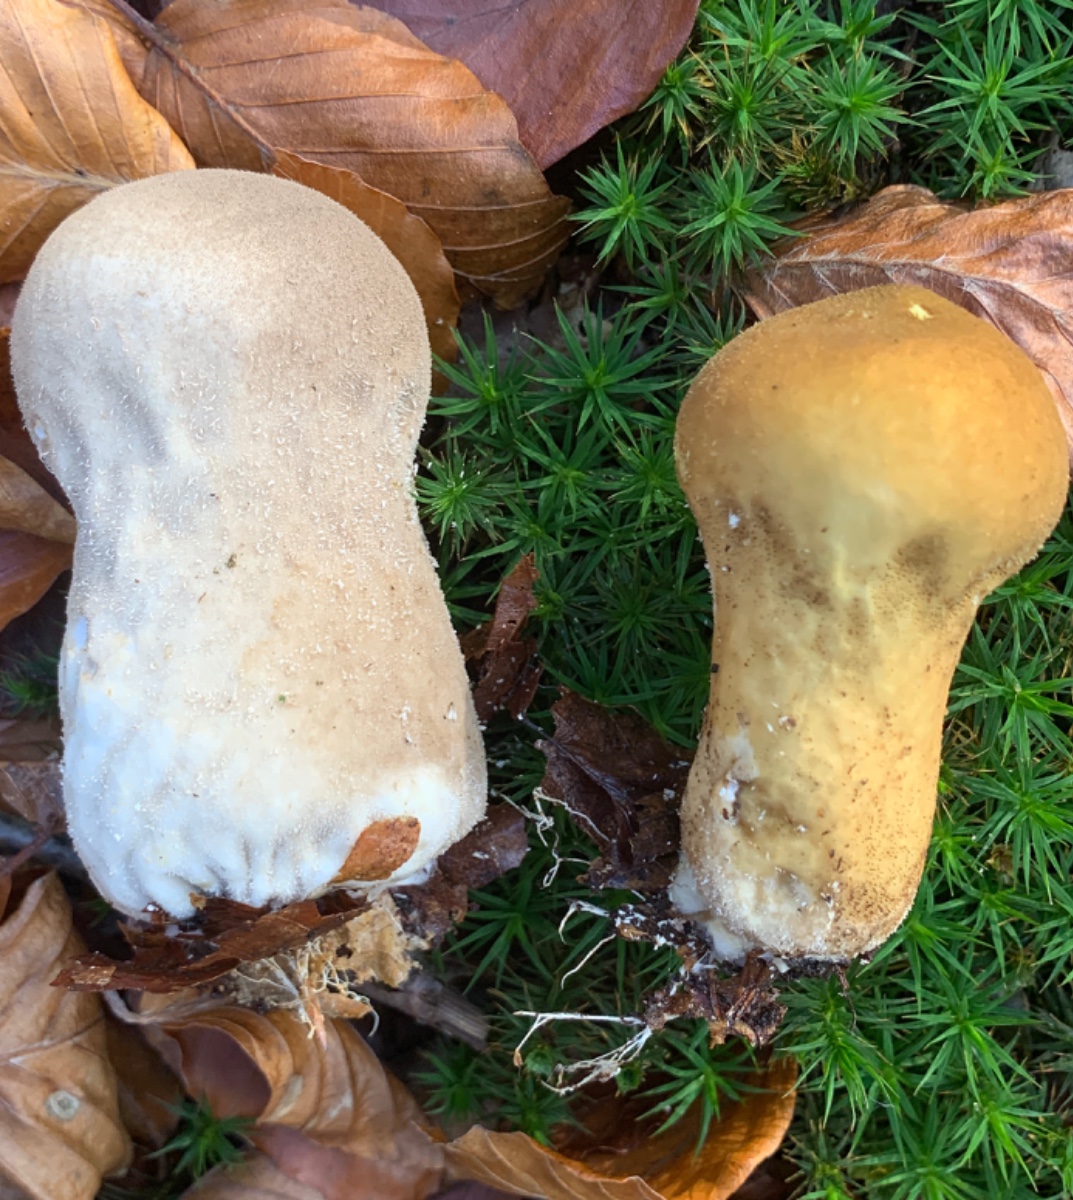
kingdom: Fungi
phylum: Basidiomycota
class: Agaricomycetes
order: Agaricales
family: Lycoperdaceae
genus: Lycoperdon
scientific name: Lycoperdon excipuliforme
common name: højstokket støvbold
